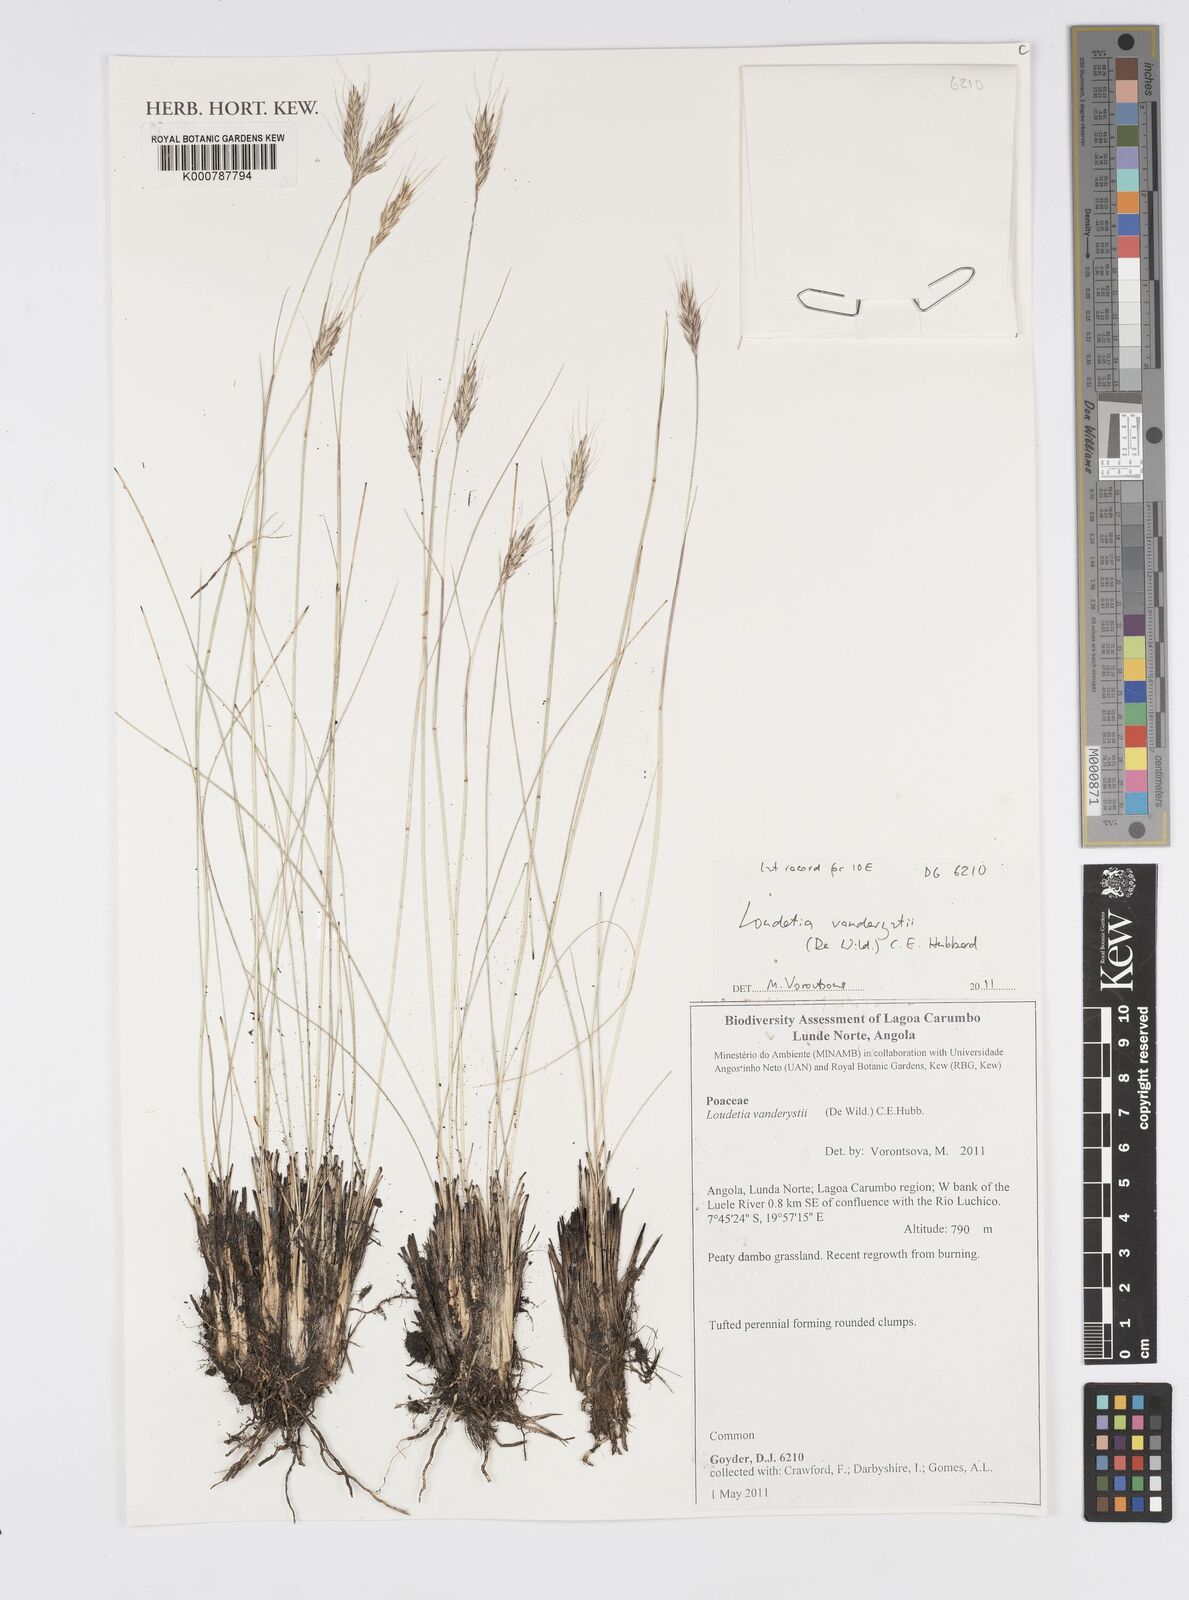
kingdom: Plantae
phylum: Tracheophyta
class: Liliopsida
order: Poales
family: Poaceae
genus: Loudetia
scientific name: Loudetia vanderystii
